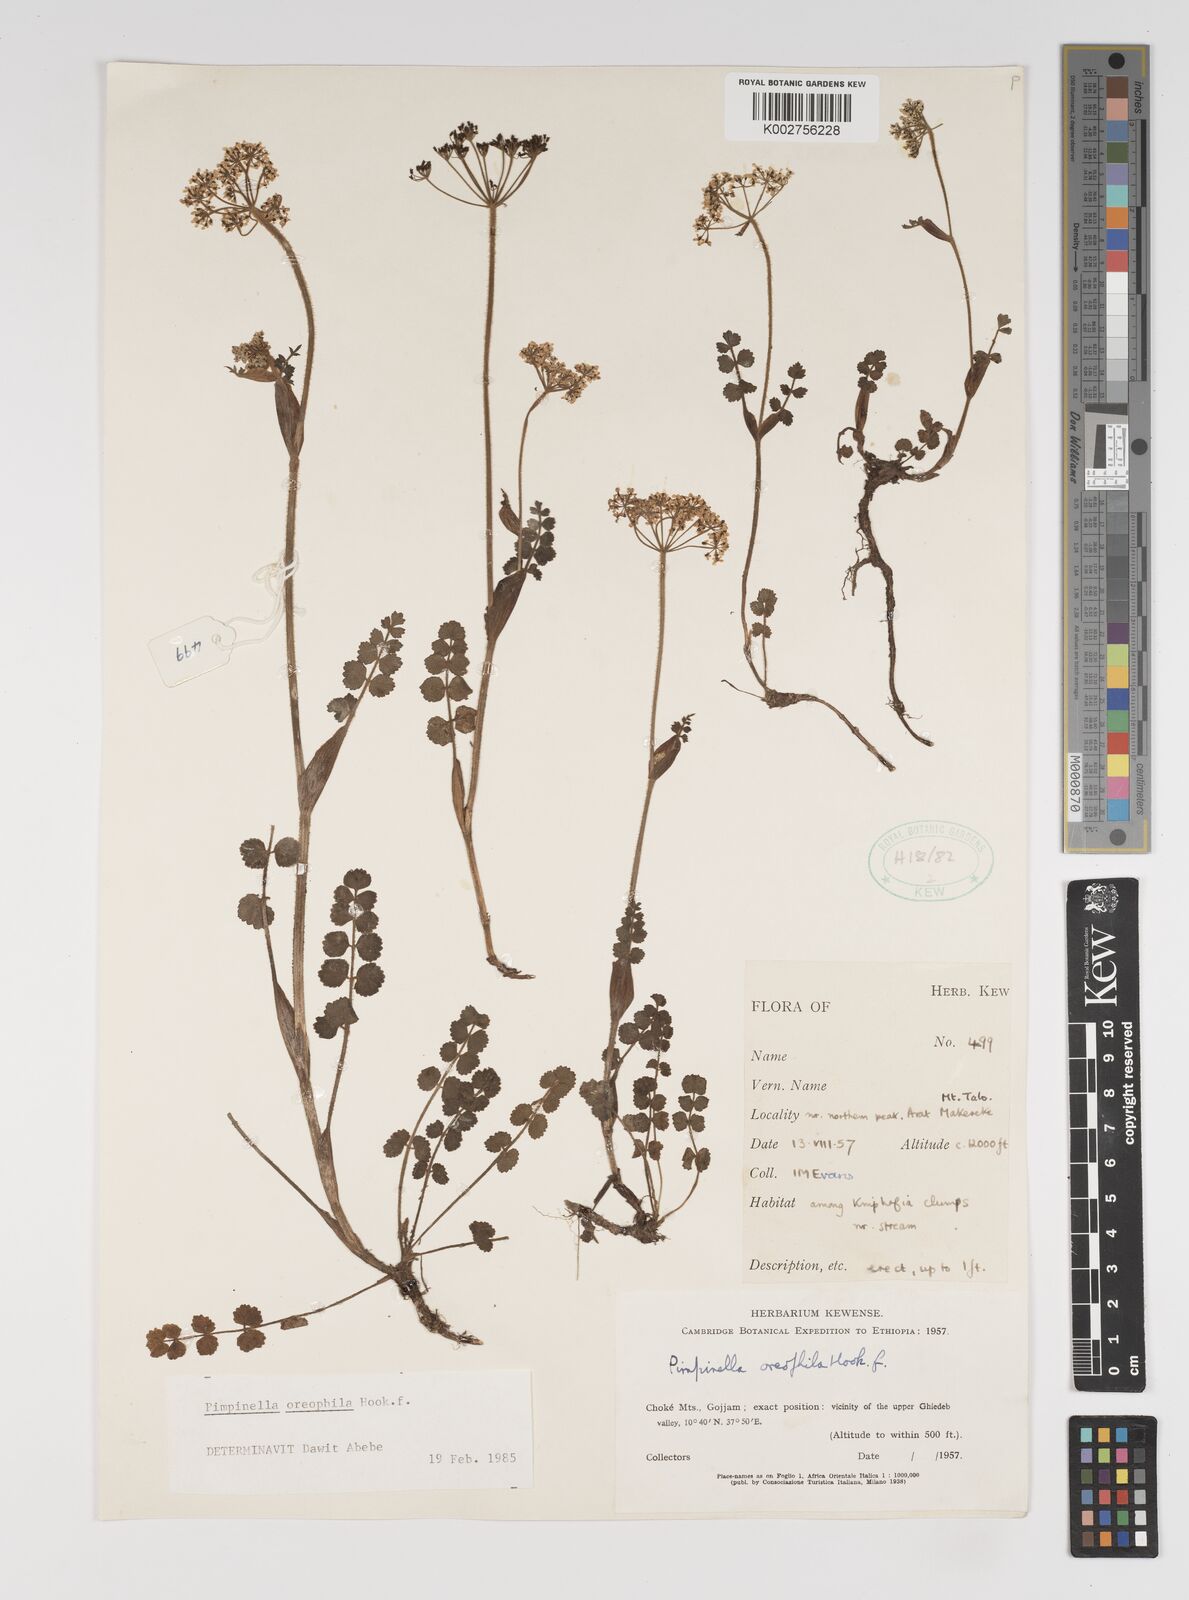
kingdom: Plantae
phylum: Tracheophyta
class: Magnoliopsida
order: Apiales
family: Apiaceae
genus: Pimpinella
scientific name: Pimpinella oreophila
